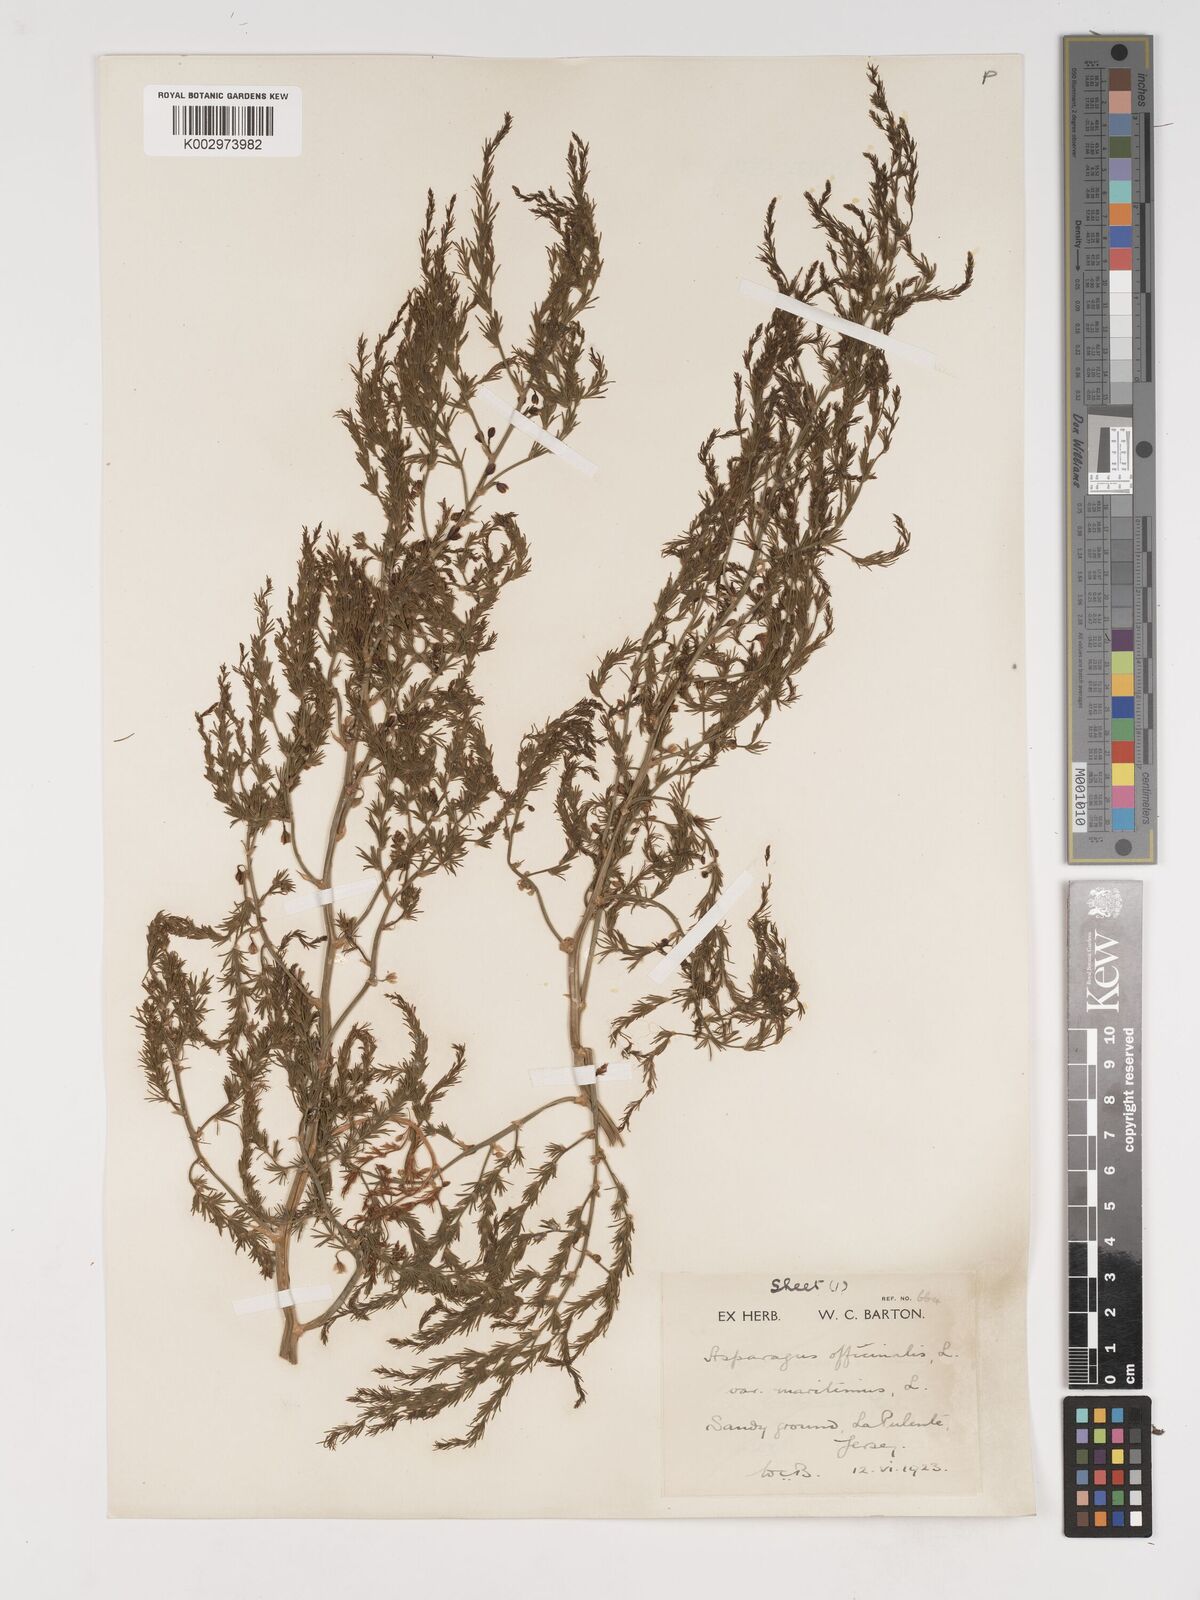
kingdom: Plantae
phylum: Tracheophyta
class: Liliopsida
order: Asparagales
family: Asparagaceae
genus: Asparagus
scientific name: Asparagus maritimus
